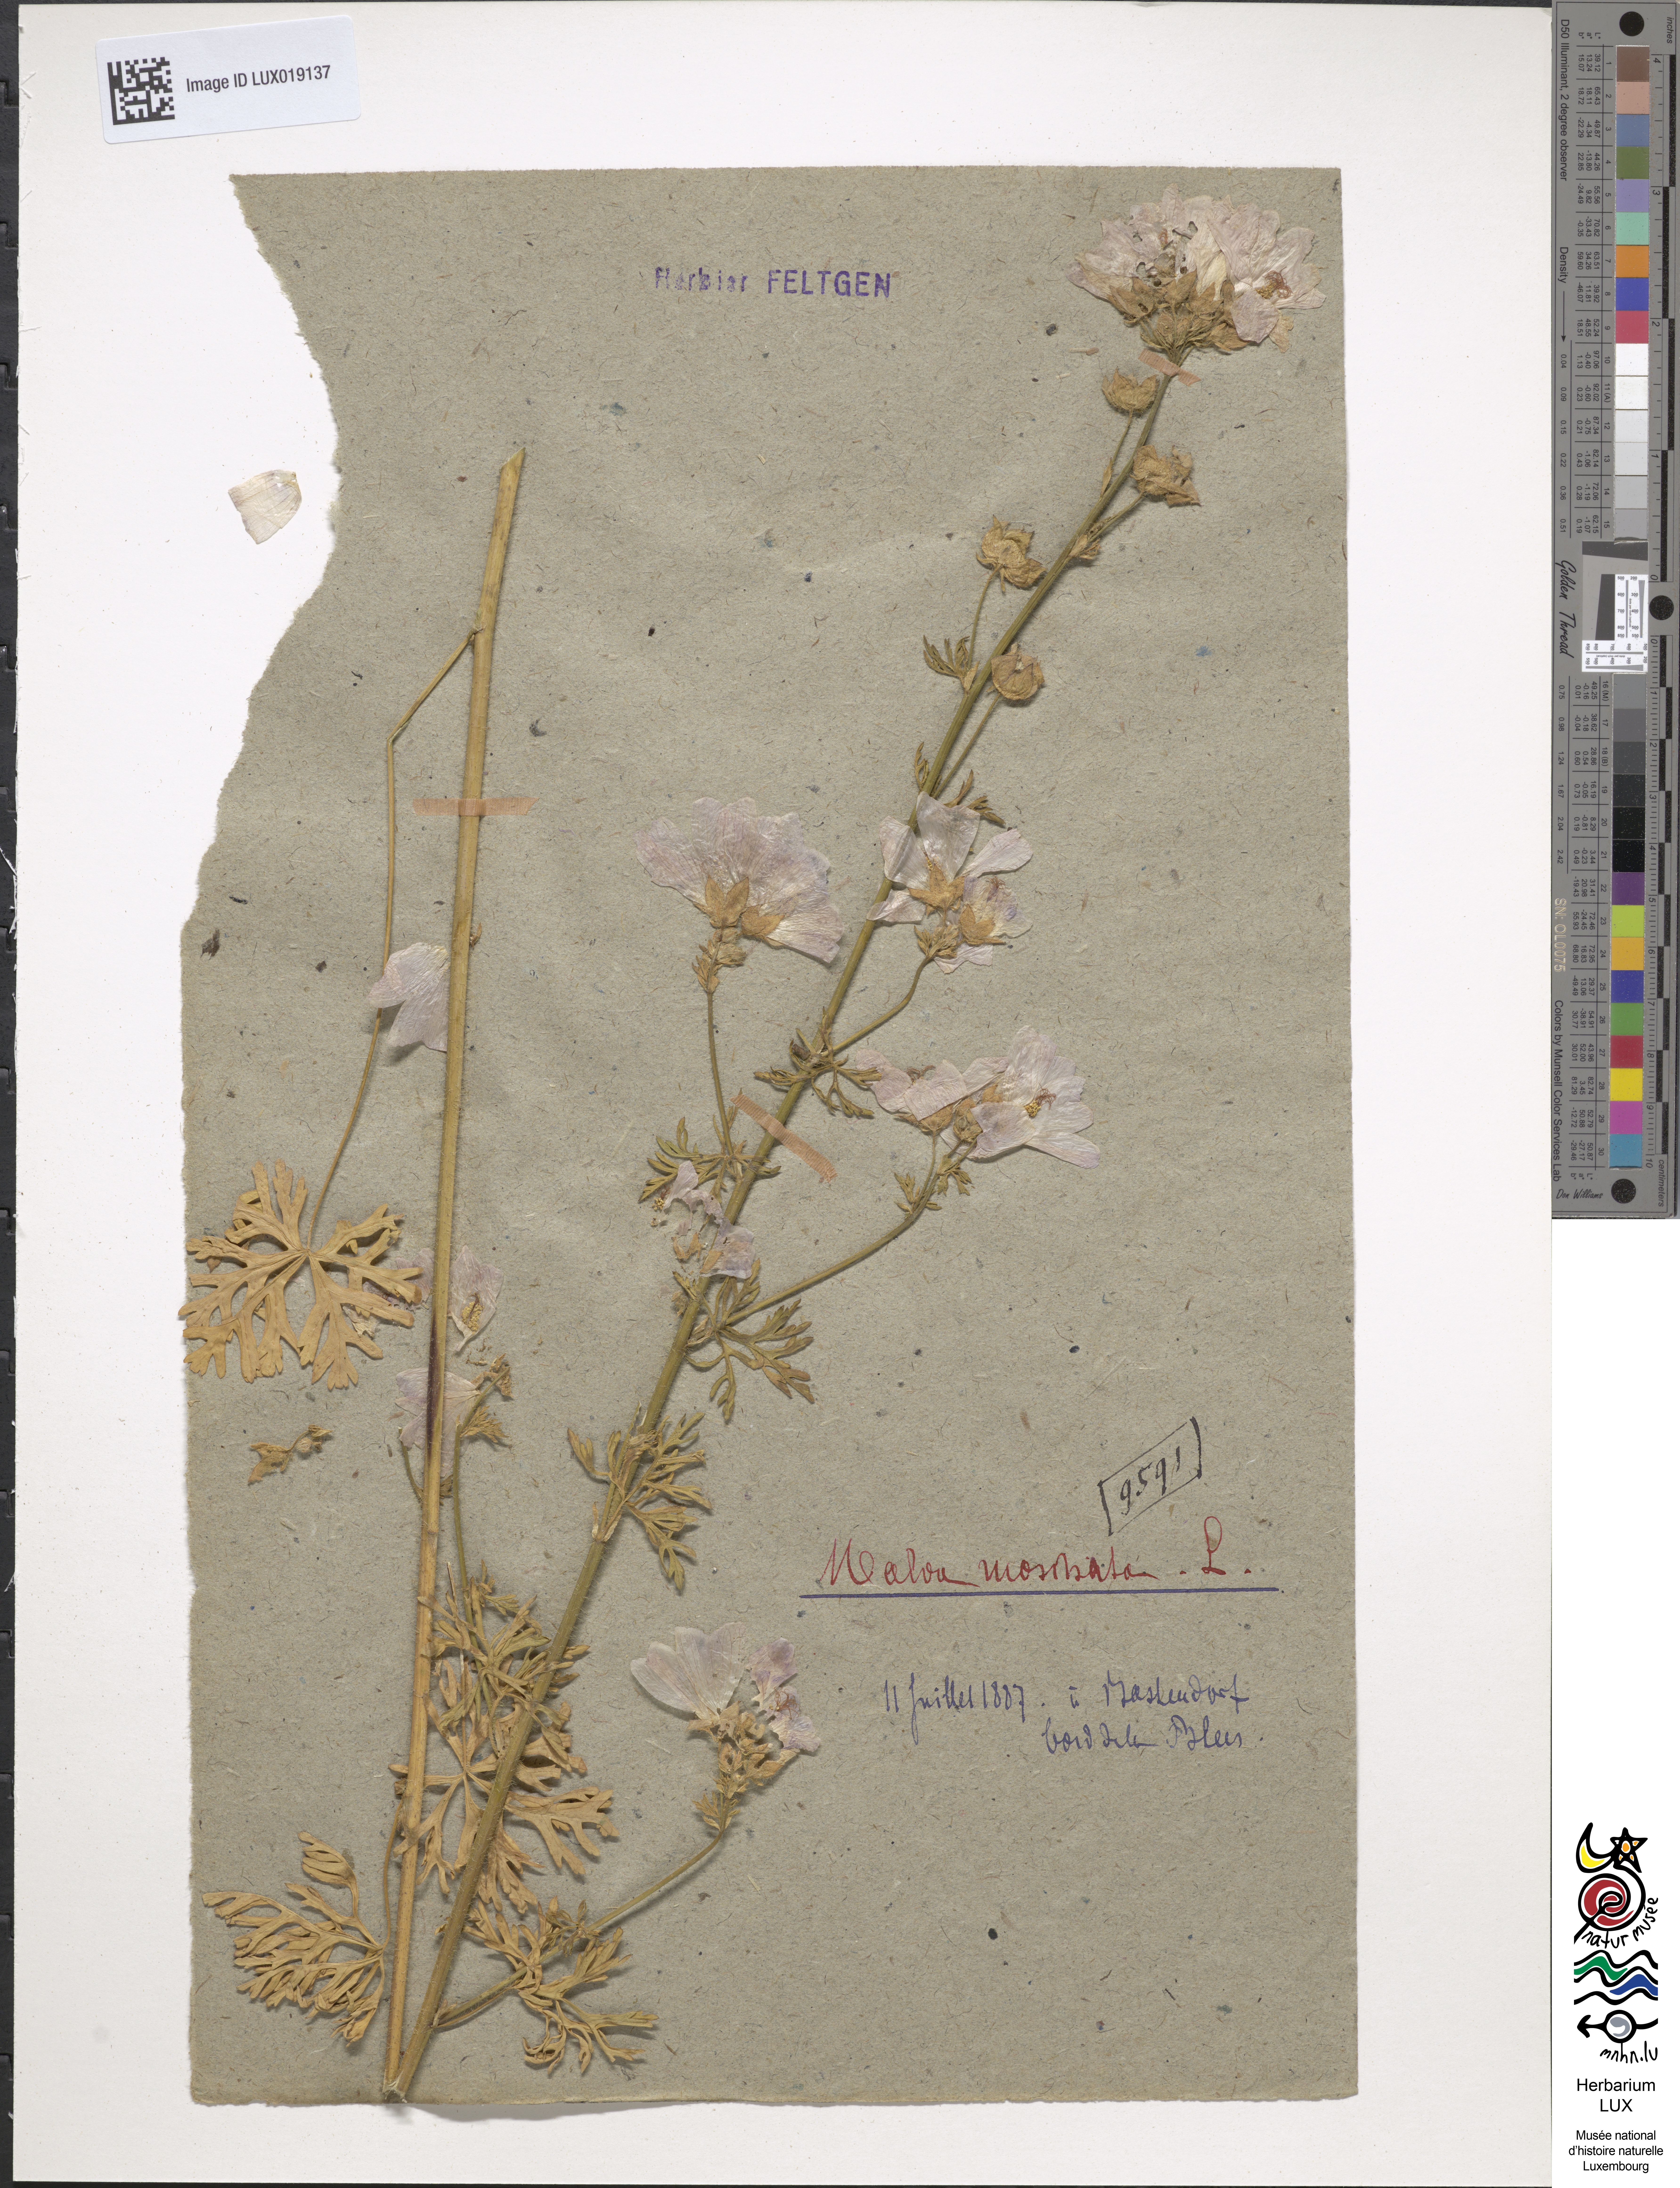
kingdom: Plantae
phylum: Tracheophyta
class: Magnoliopsida
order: Malvales
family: Malvaceae
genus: Malva
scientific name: Malva moschata
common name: Musk mallow
